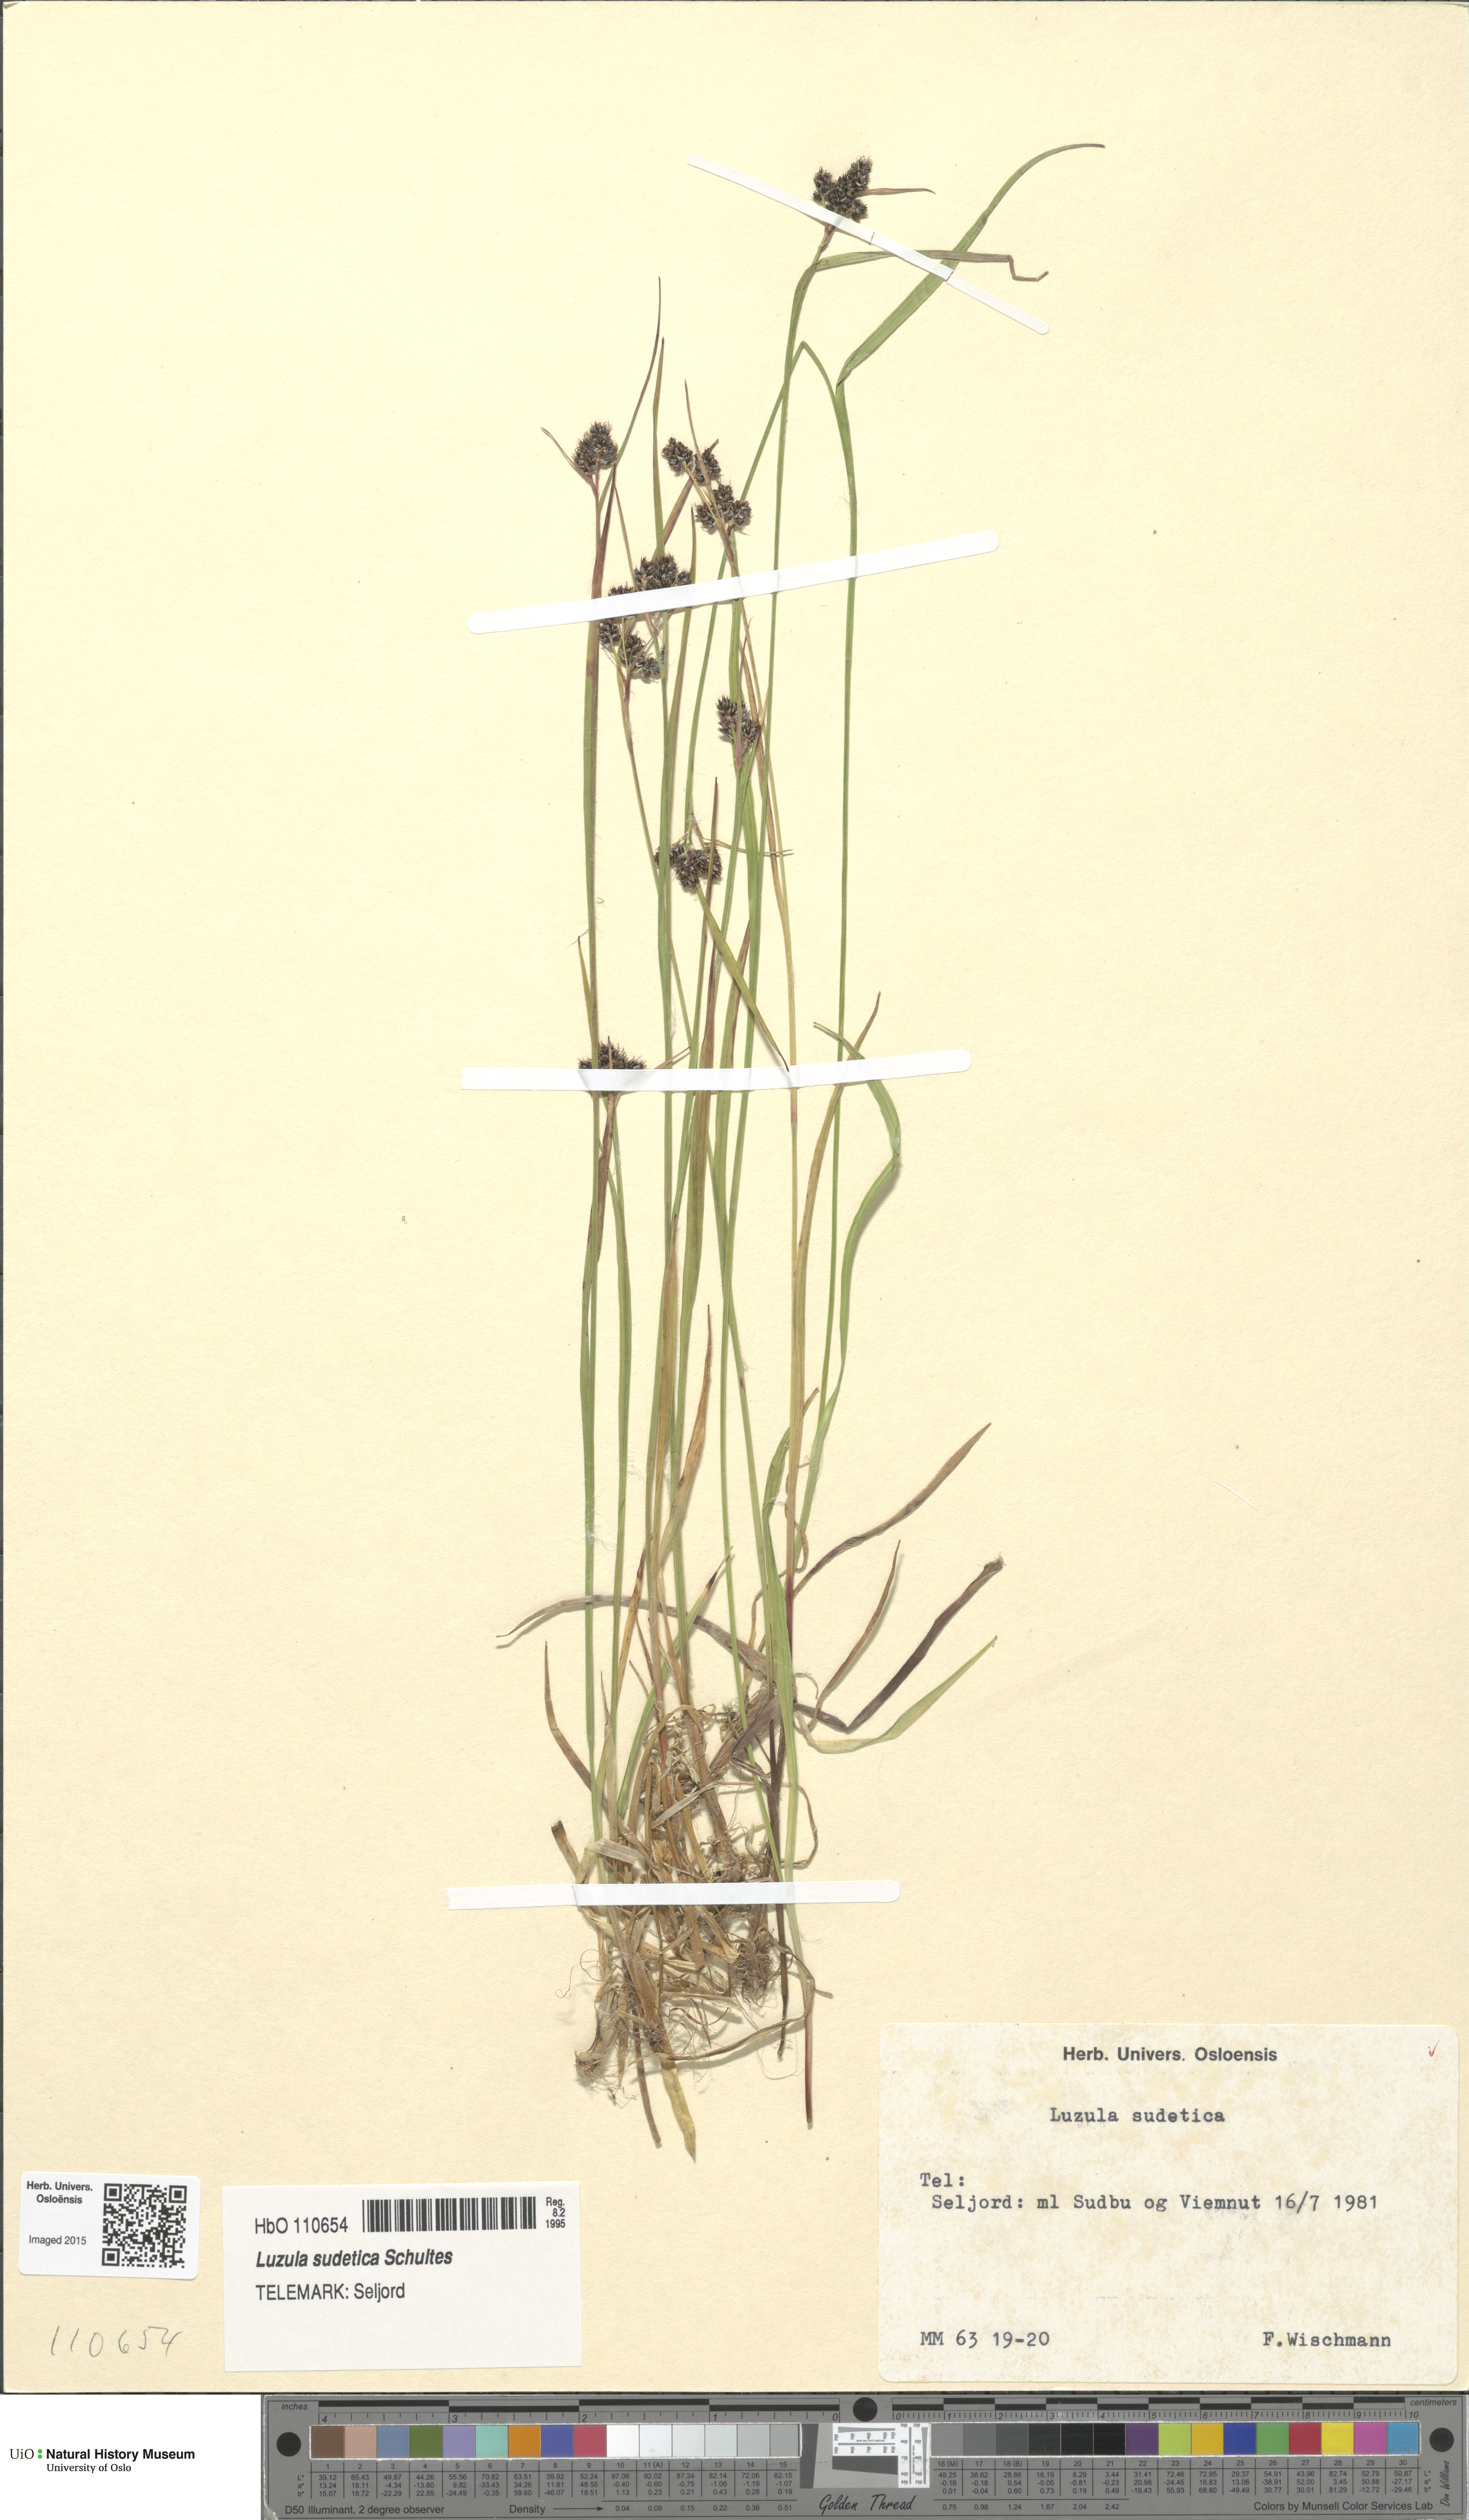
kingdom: Plantae
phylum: Tracheophyta
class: Liliopsida
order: Poales
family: Juncaceae
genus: Luzula
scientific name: Luzula sudetica
